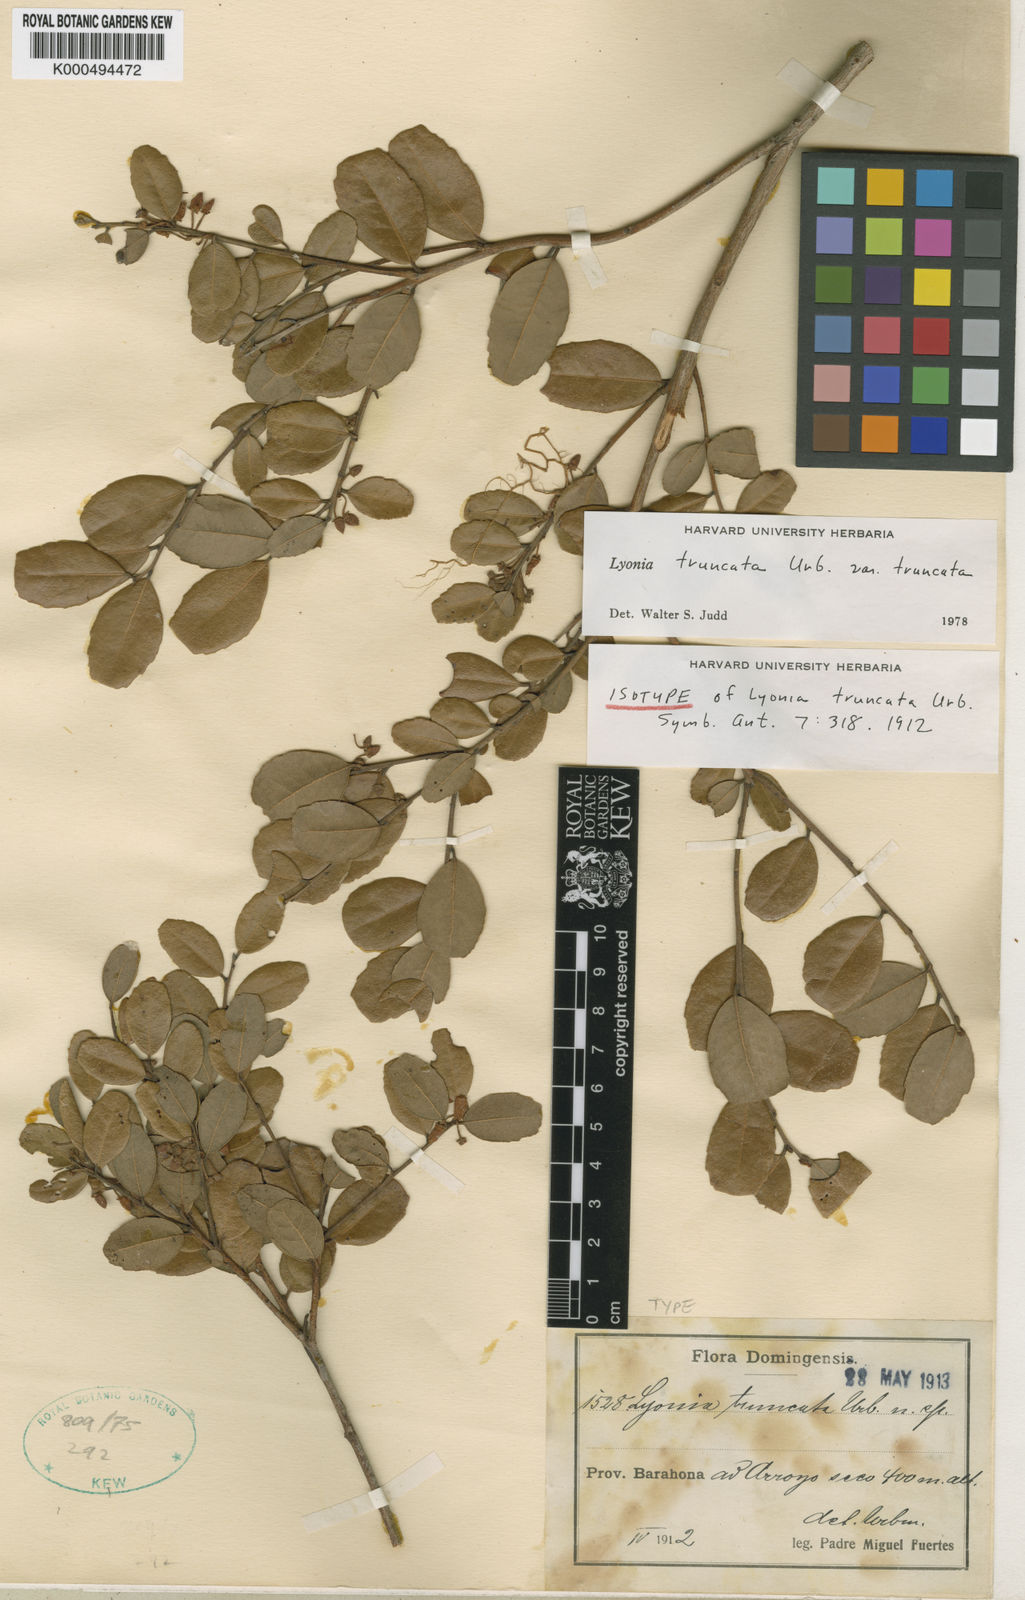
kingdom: Plantae
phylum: Tracheophyta
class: Magnoliopsida
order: Ericales
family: Ericaceae
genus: Lyonia
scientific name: Lyonia truncata
